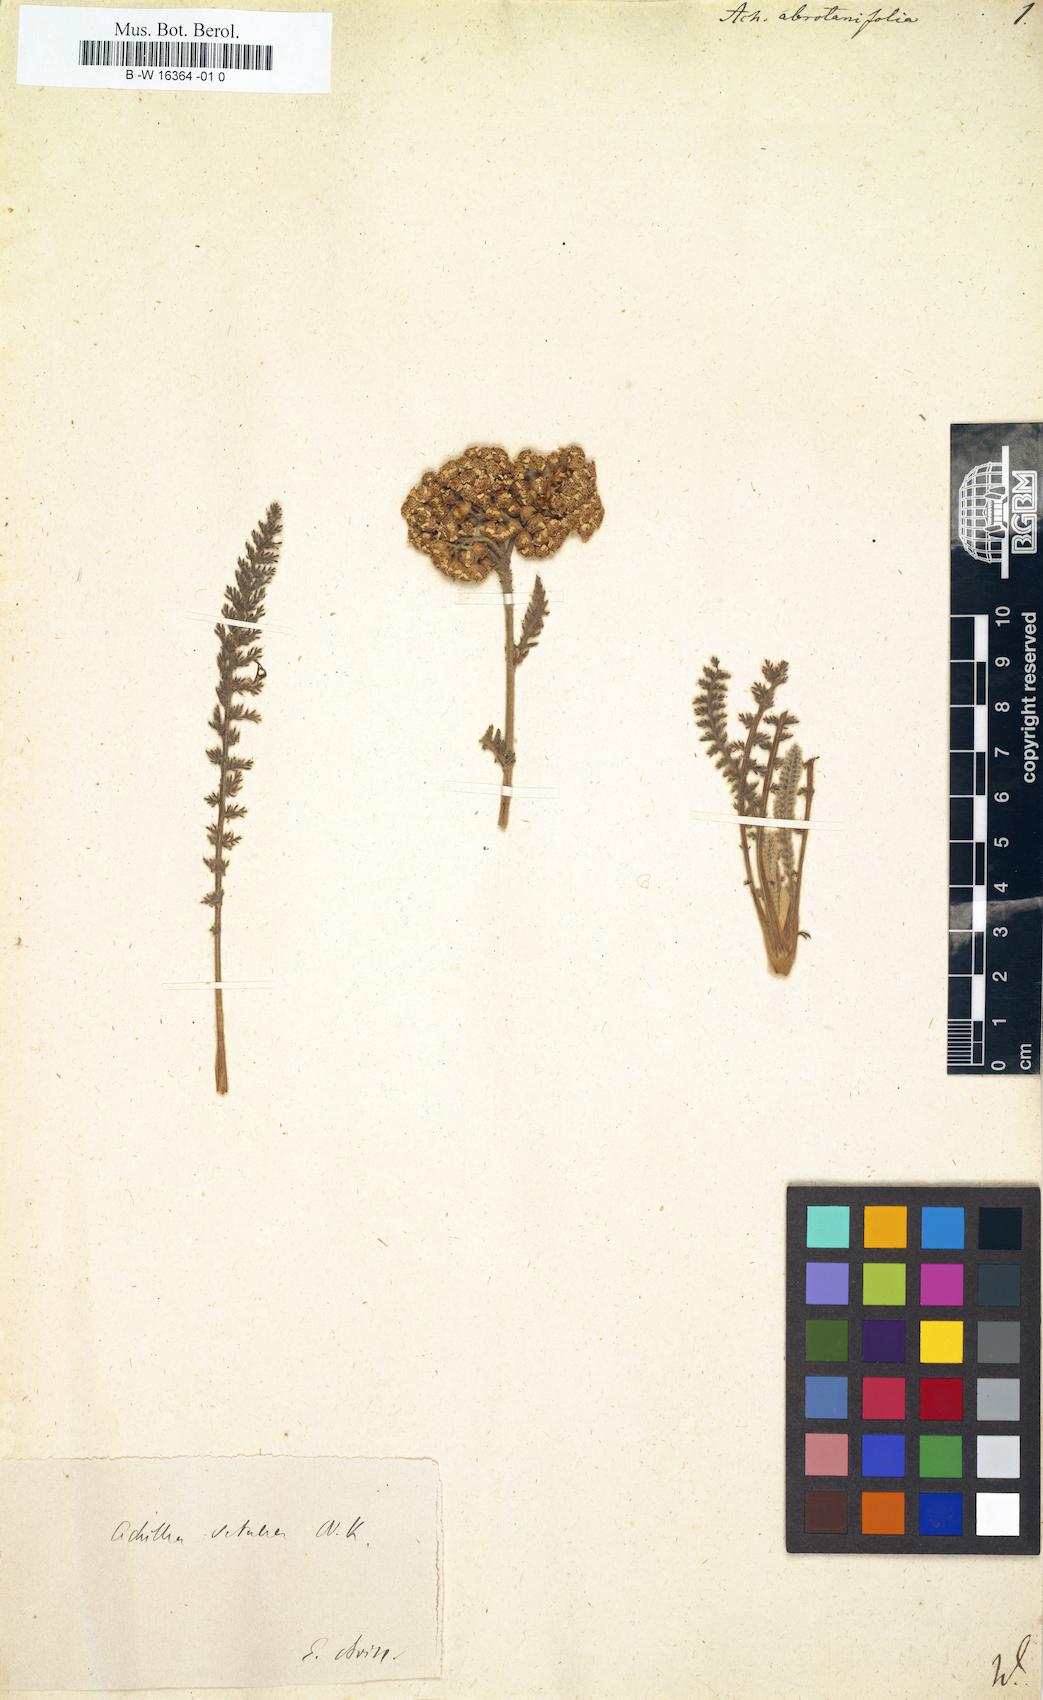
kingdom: Plantae
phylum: Tracheophyta
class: Magnoliopsida
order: Asterales
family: Asteraceae
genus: Tanacetum
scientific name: Tanacetum abrotanifolium
